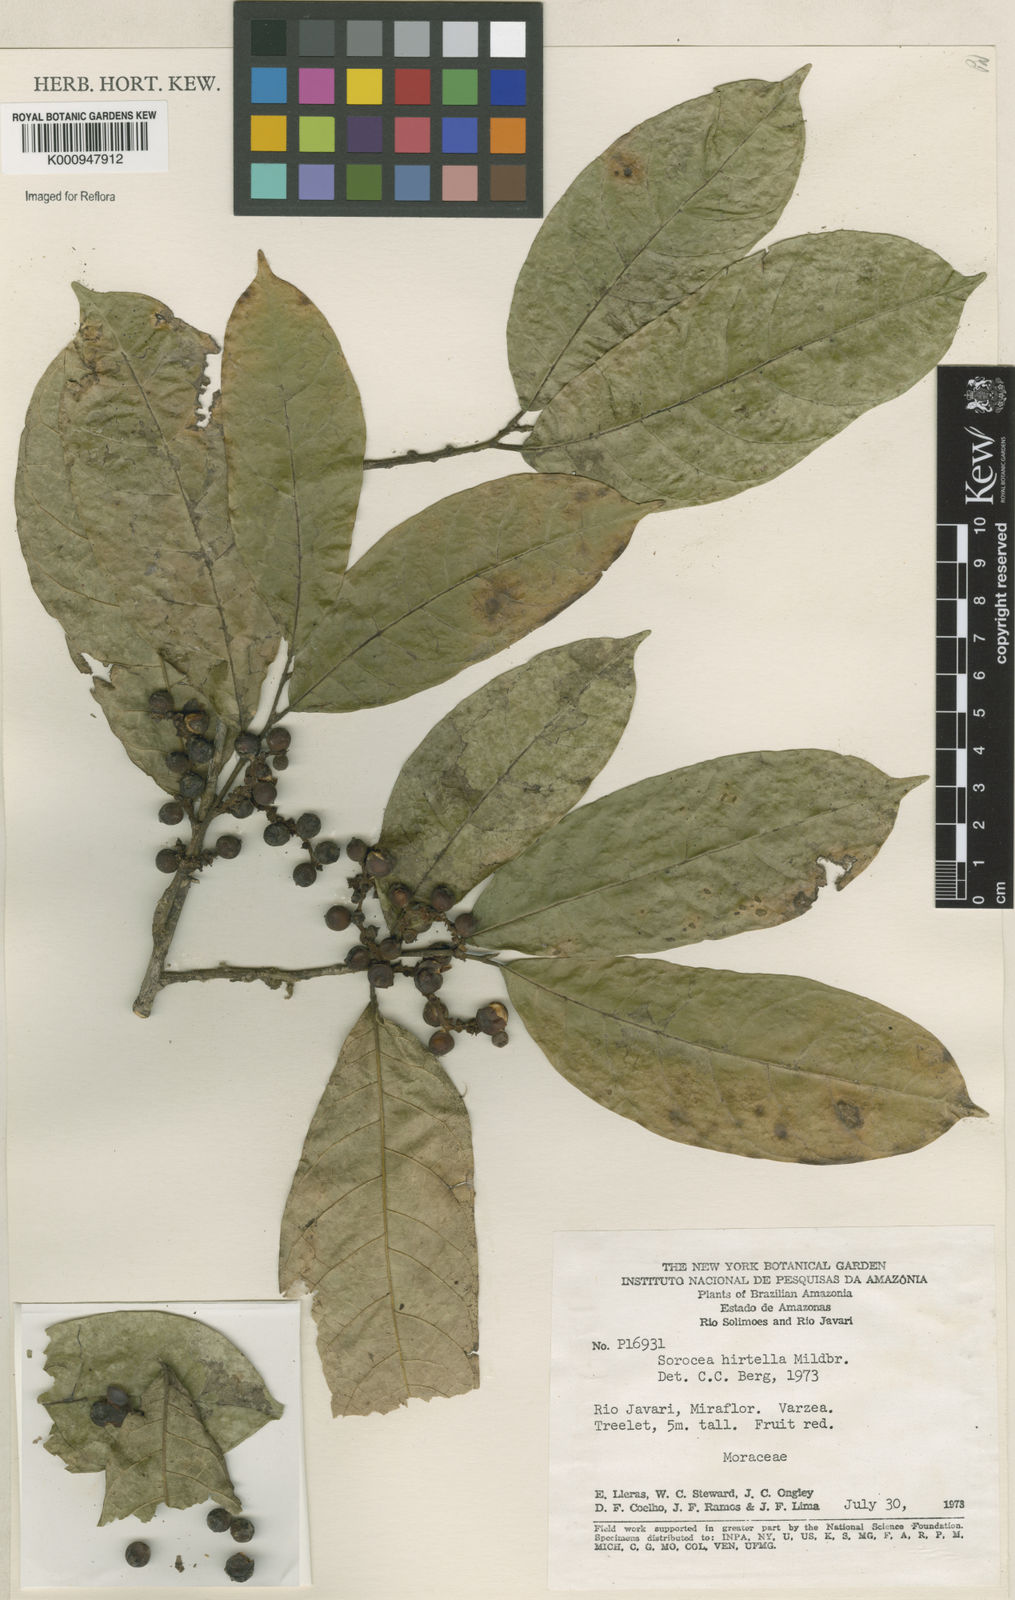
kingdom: Plantae
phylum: Tracheophyta
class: Magnoliopsida
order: Rosales
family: Moraceae
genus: Sorocea
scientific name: Sorocea pubivena
